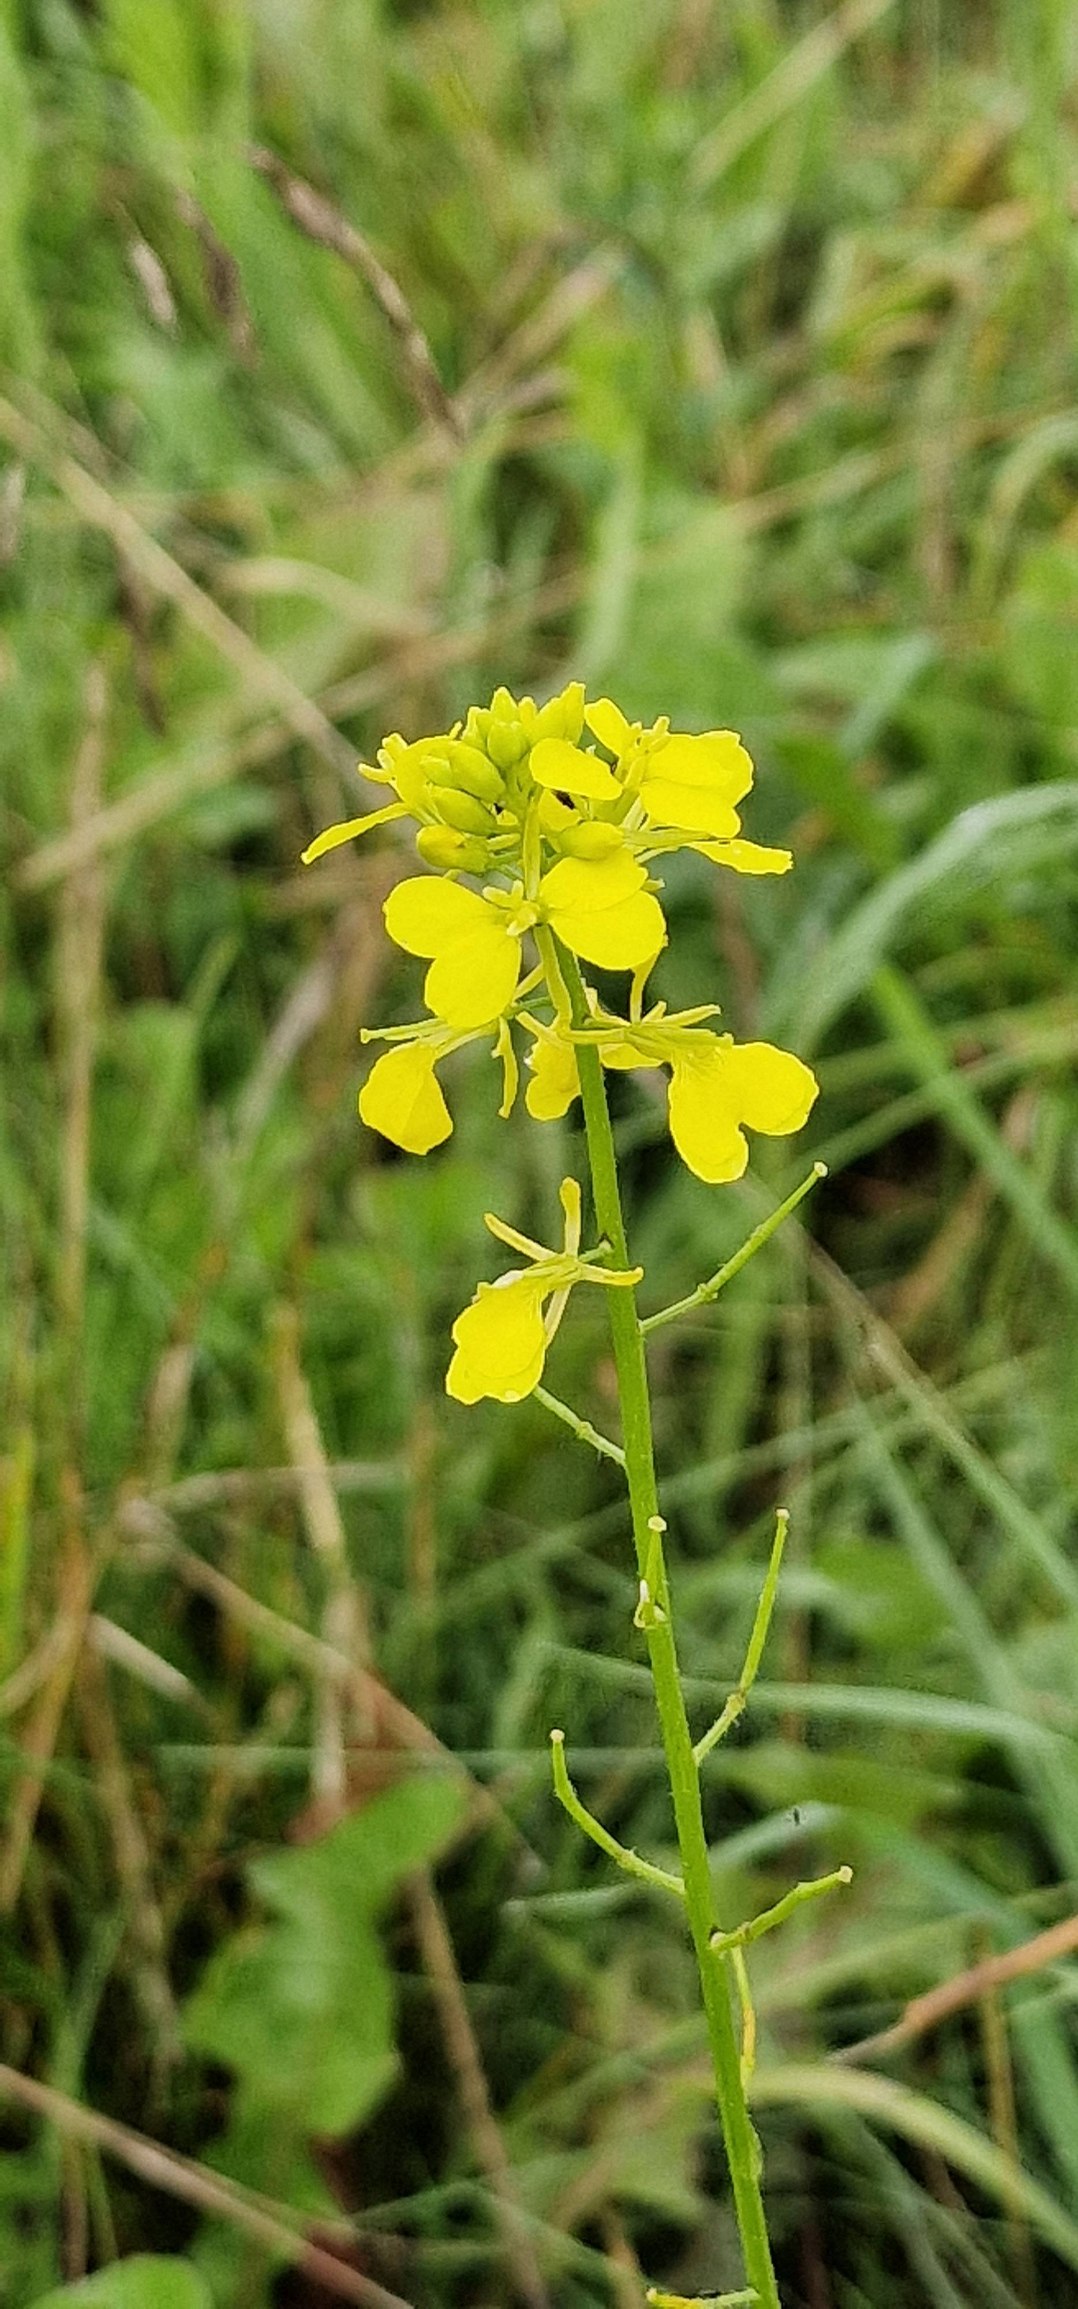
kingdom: Plantae
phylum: Tracheophyta
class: Magnoliopsida
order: Brassicales
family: Brassicaceae
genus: Sinapis
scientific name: Sinapis arvensis
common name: Ager-sennep
